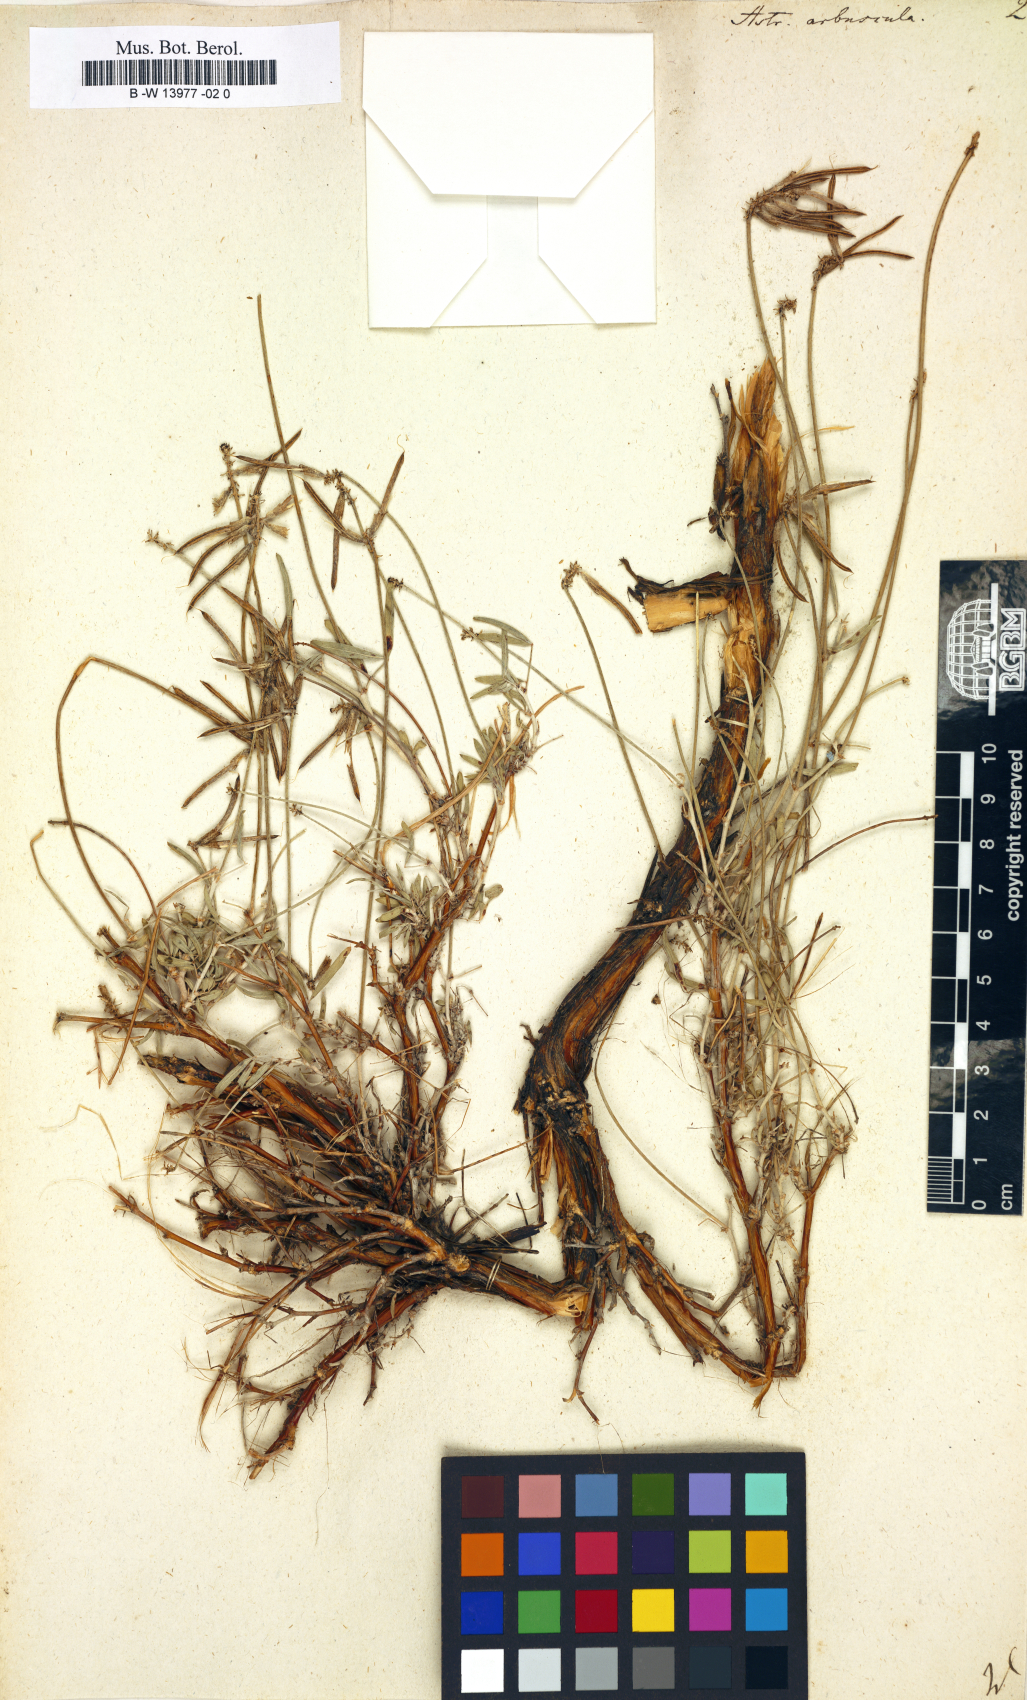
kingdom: Plantae
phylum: Tracheophyta
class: Magnoliopsida
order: Fabales
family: Fabaceae
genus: Astragalus
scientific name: Astragalus arbuscula
